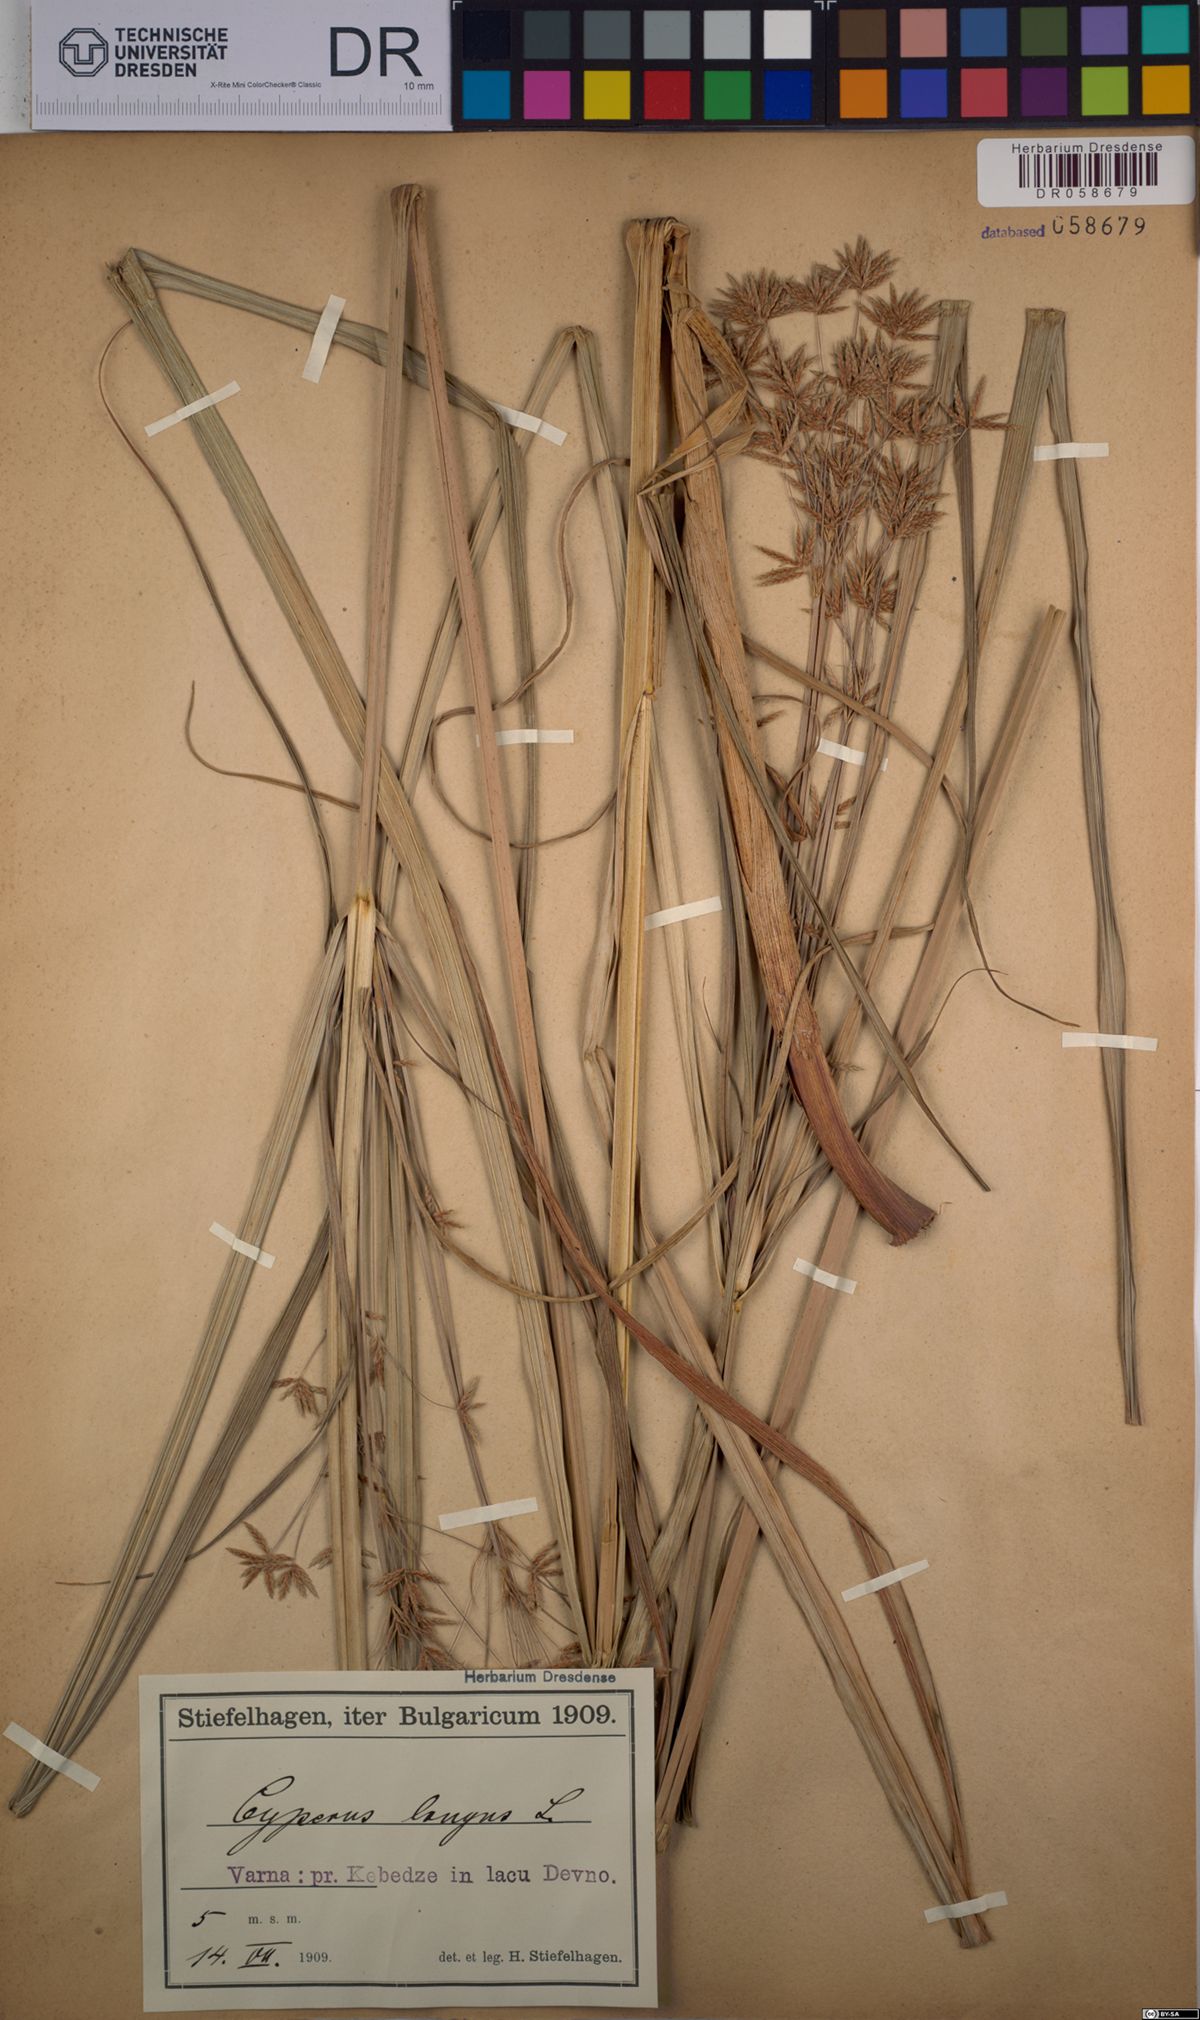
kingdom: Plantae
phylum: Tracheophyta
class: Liliopsida
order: Poales
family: Cyperaceae
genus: Cyperus
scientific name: Cyperus longus
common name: Galingale
